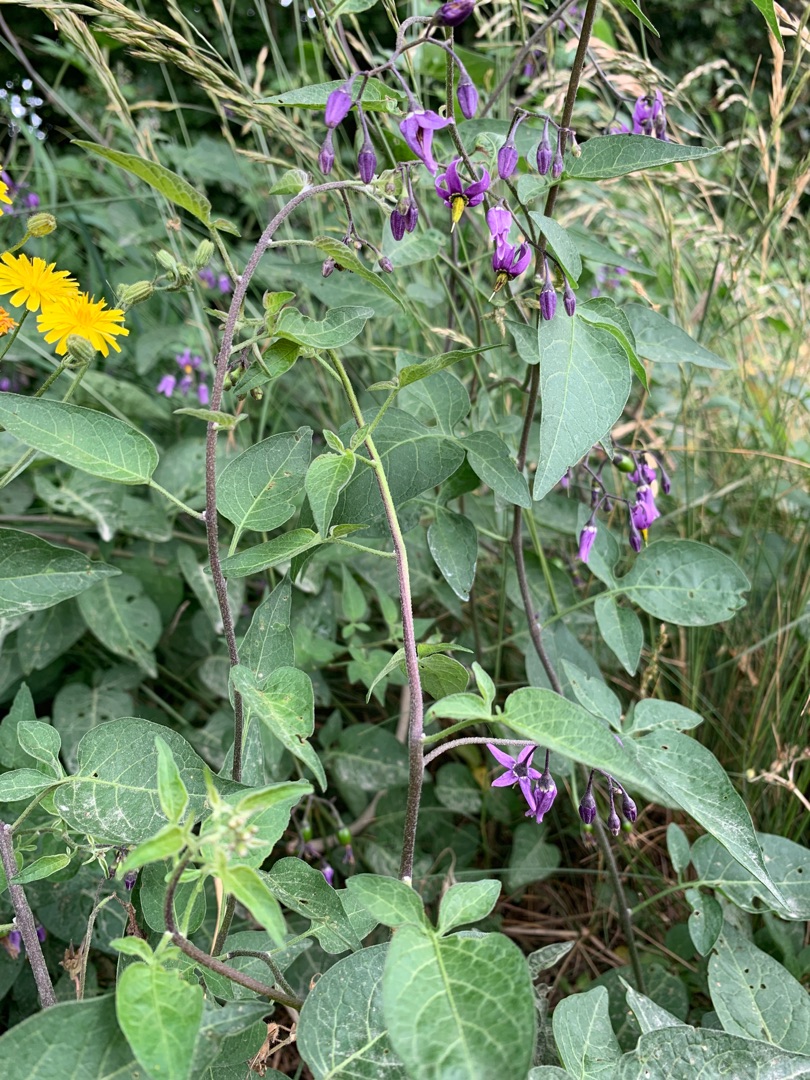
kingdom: Plantae
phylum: Tracheophyta
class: Magnoliopsida
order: Solanales
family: Solanaceae
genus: Solanum
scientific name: Solanum dulcamara
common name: Bittersød natskygge
